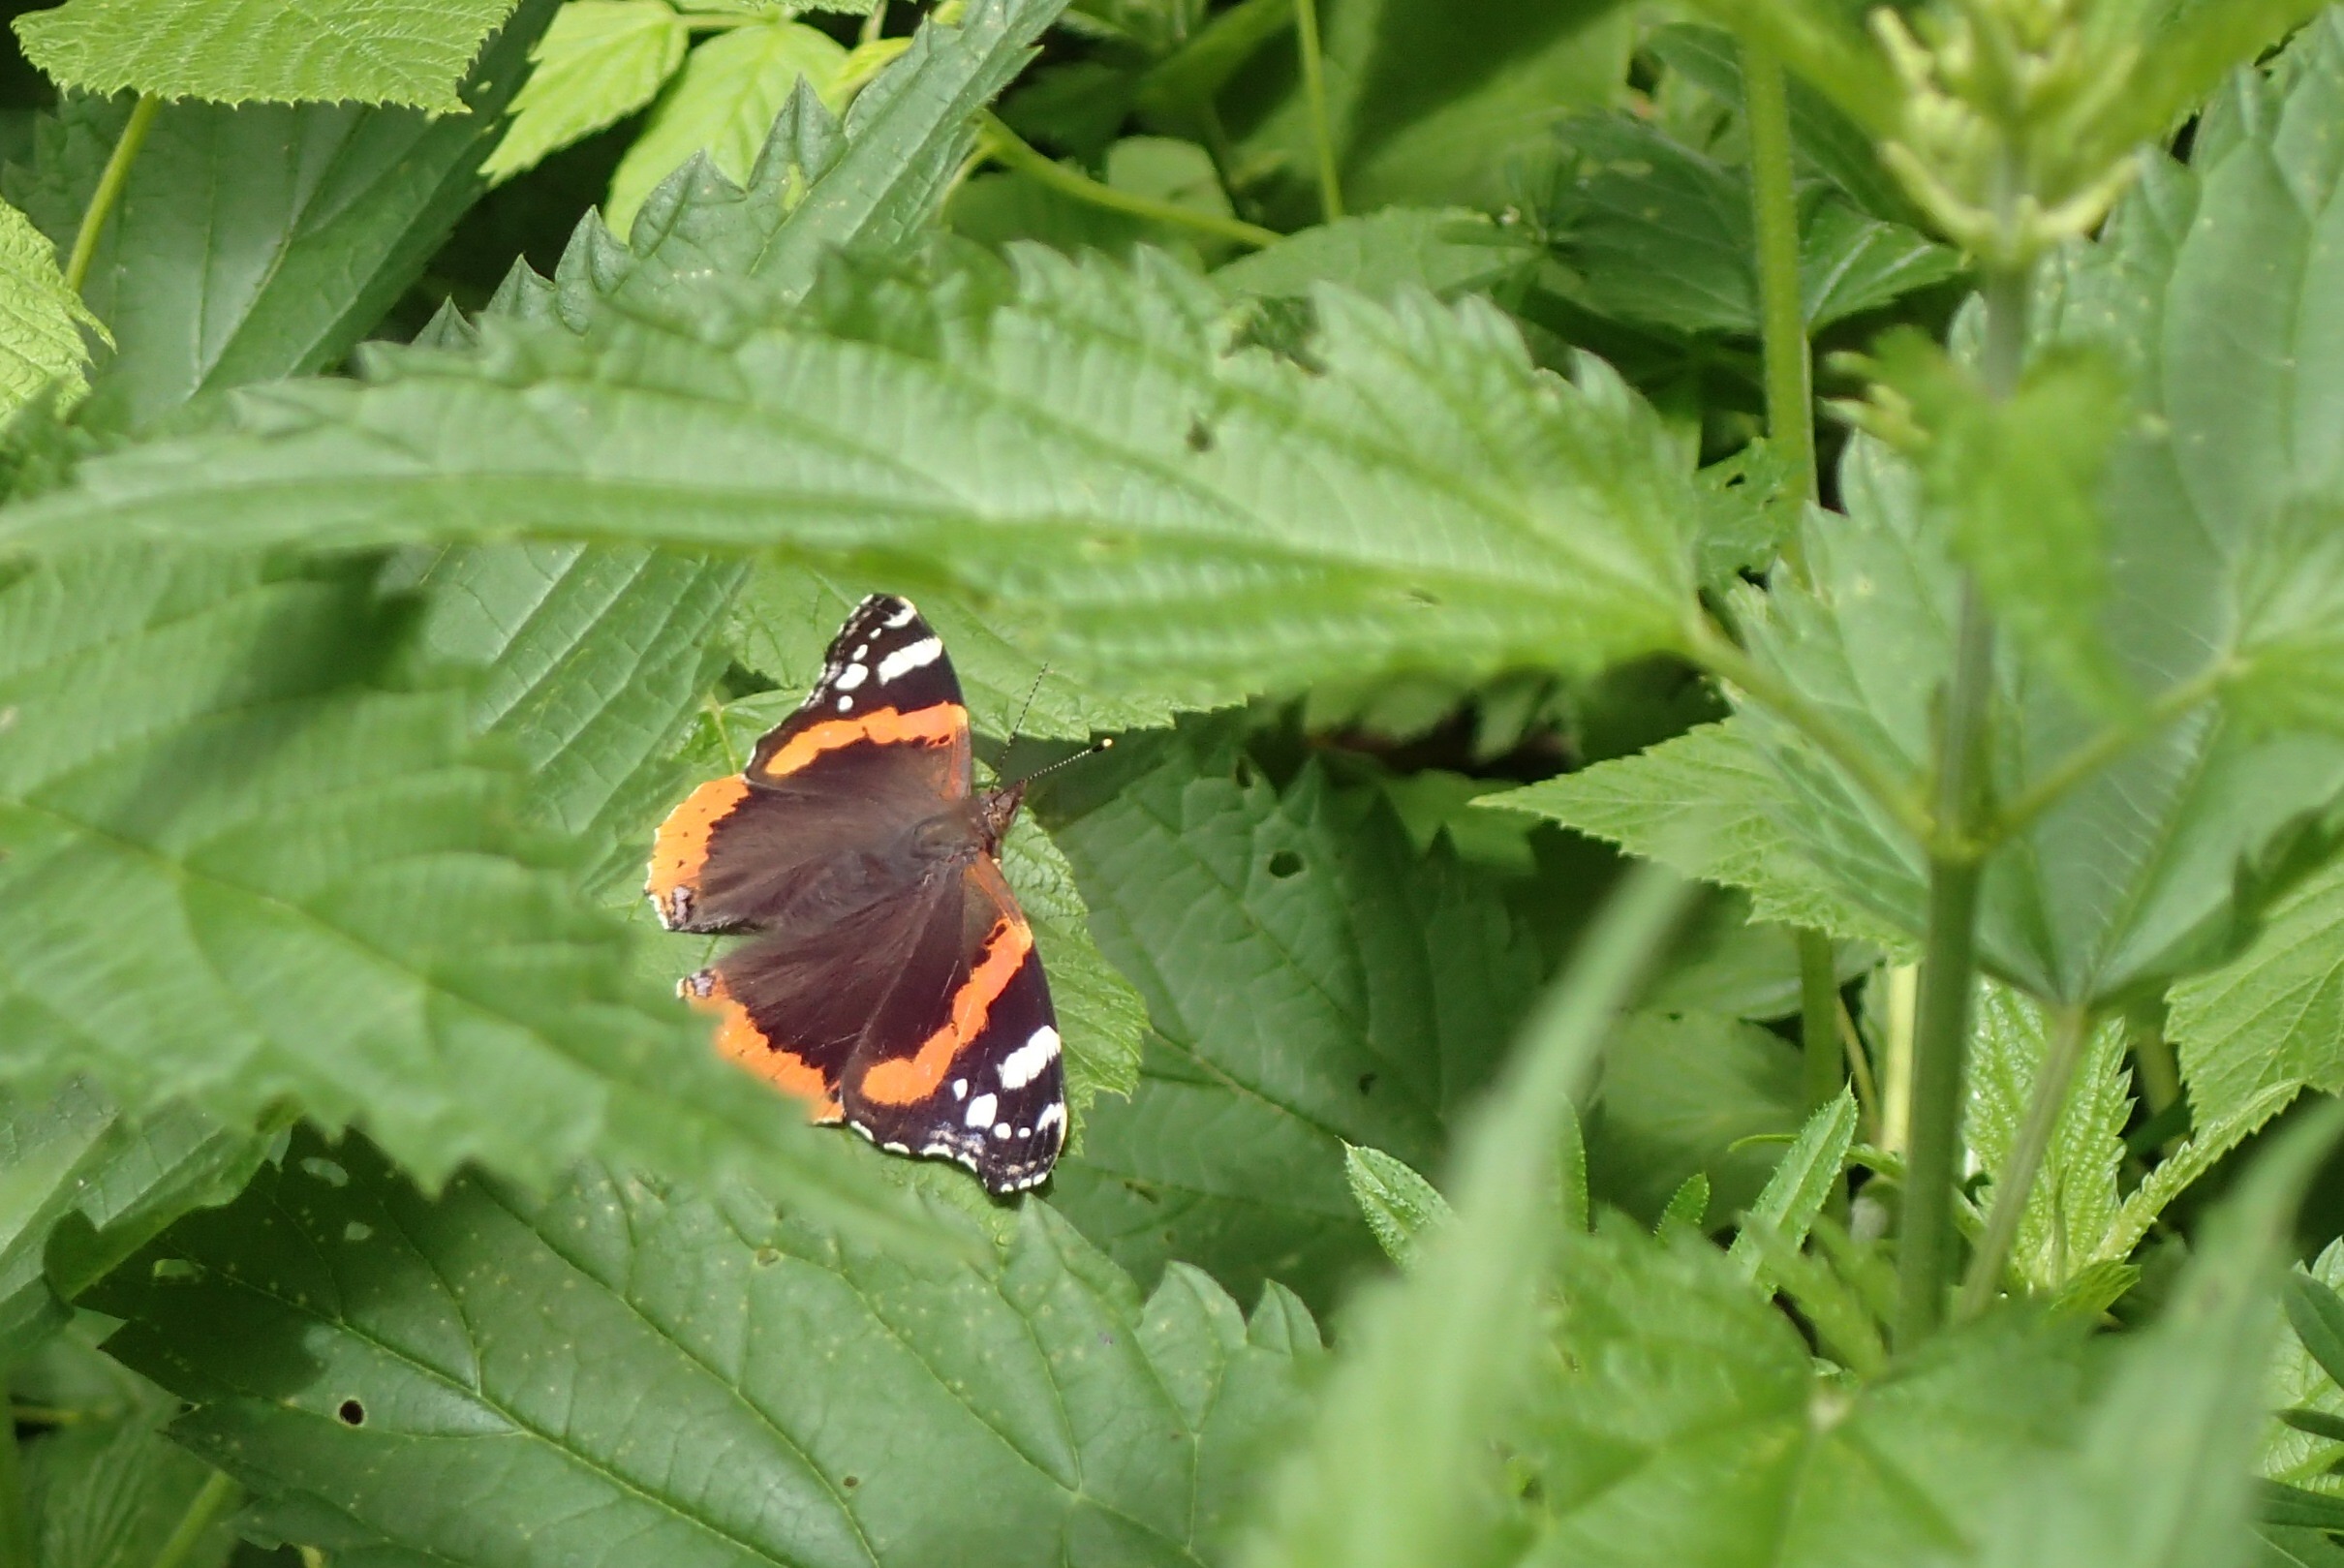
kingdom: Animalia
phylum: Arthropoda
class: Insecta
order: Lepidoptera
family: Nymphalidae
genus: Vanessa
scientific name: Vanessa atalanta
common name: Admiral
